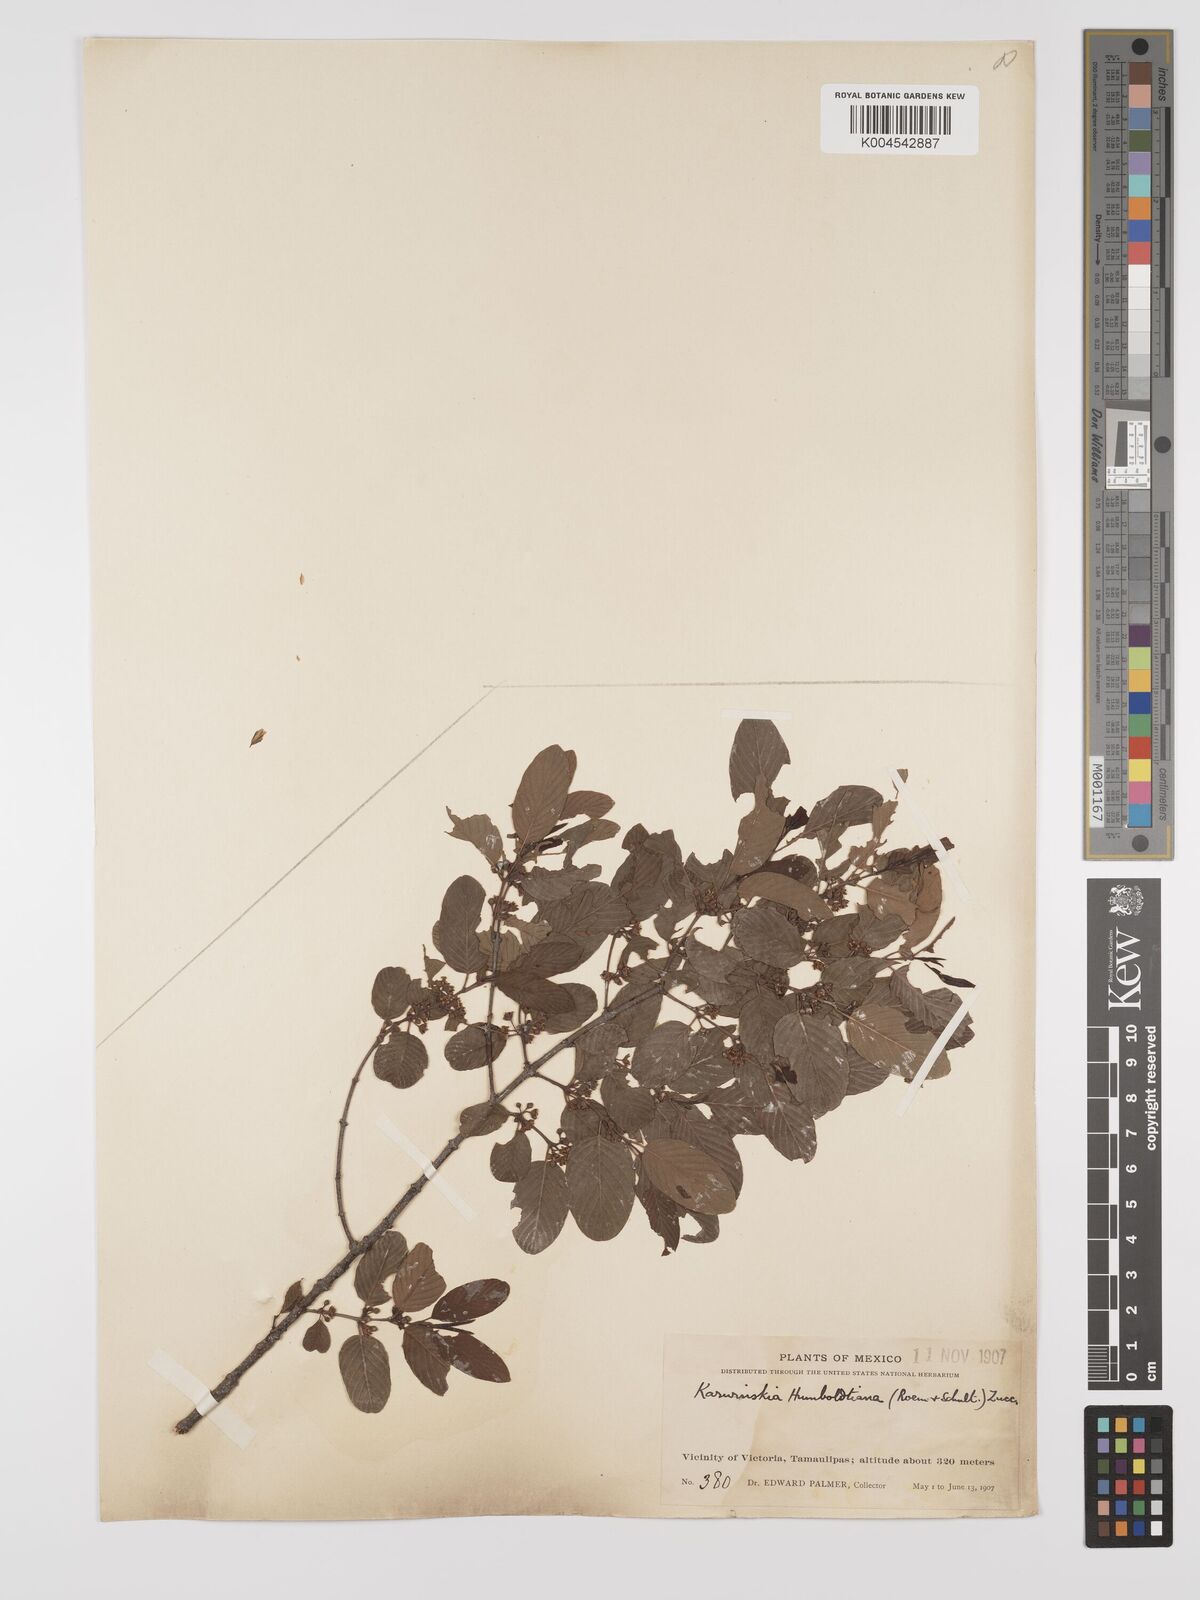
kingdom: Plantae
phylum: Tracheophyta
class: Magnoliopsida
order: Rosales
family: Rhamnaceae
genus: Karwinskia
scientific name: Karwinskia humboldtiana
